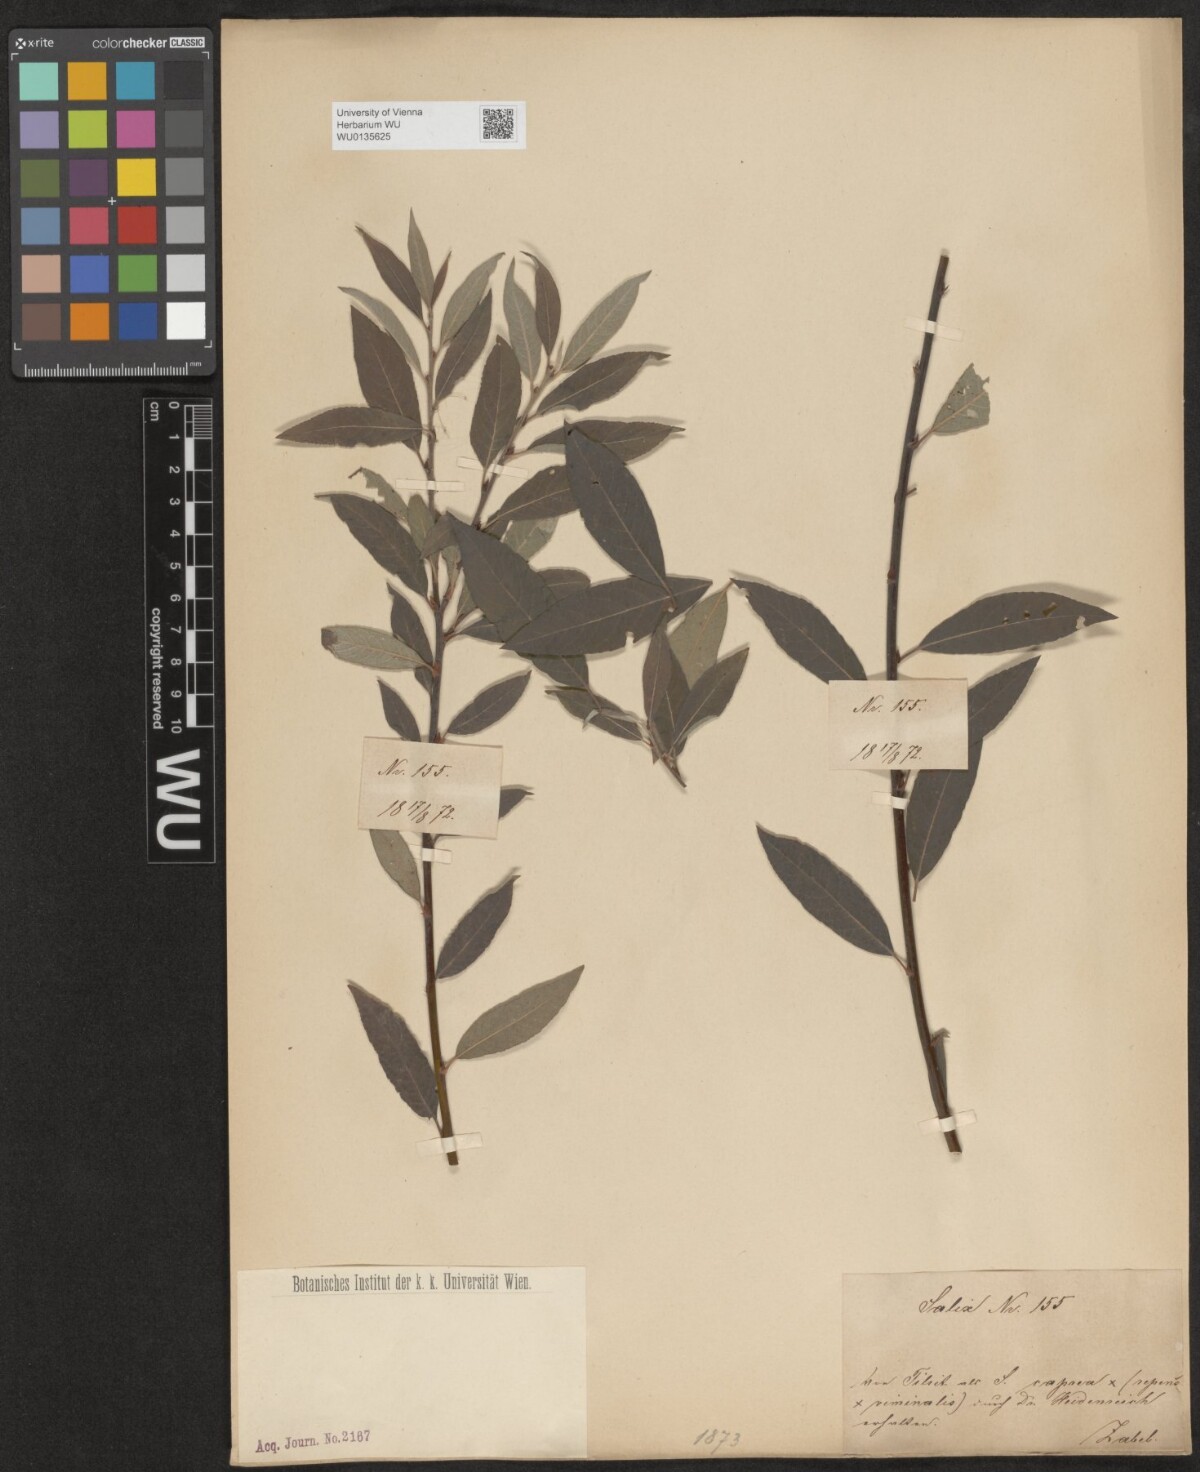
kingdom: Plantae
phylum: Tracheophyta
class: Magnoliopsida
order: Malpighiales
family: Salicaceae
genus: Salix
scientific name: Salix
